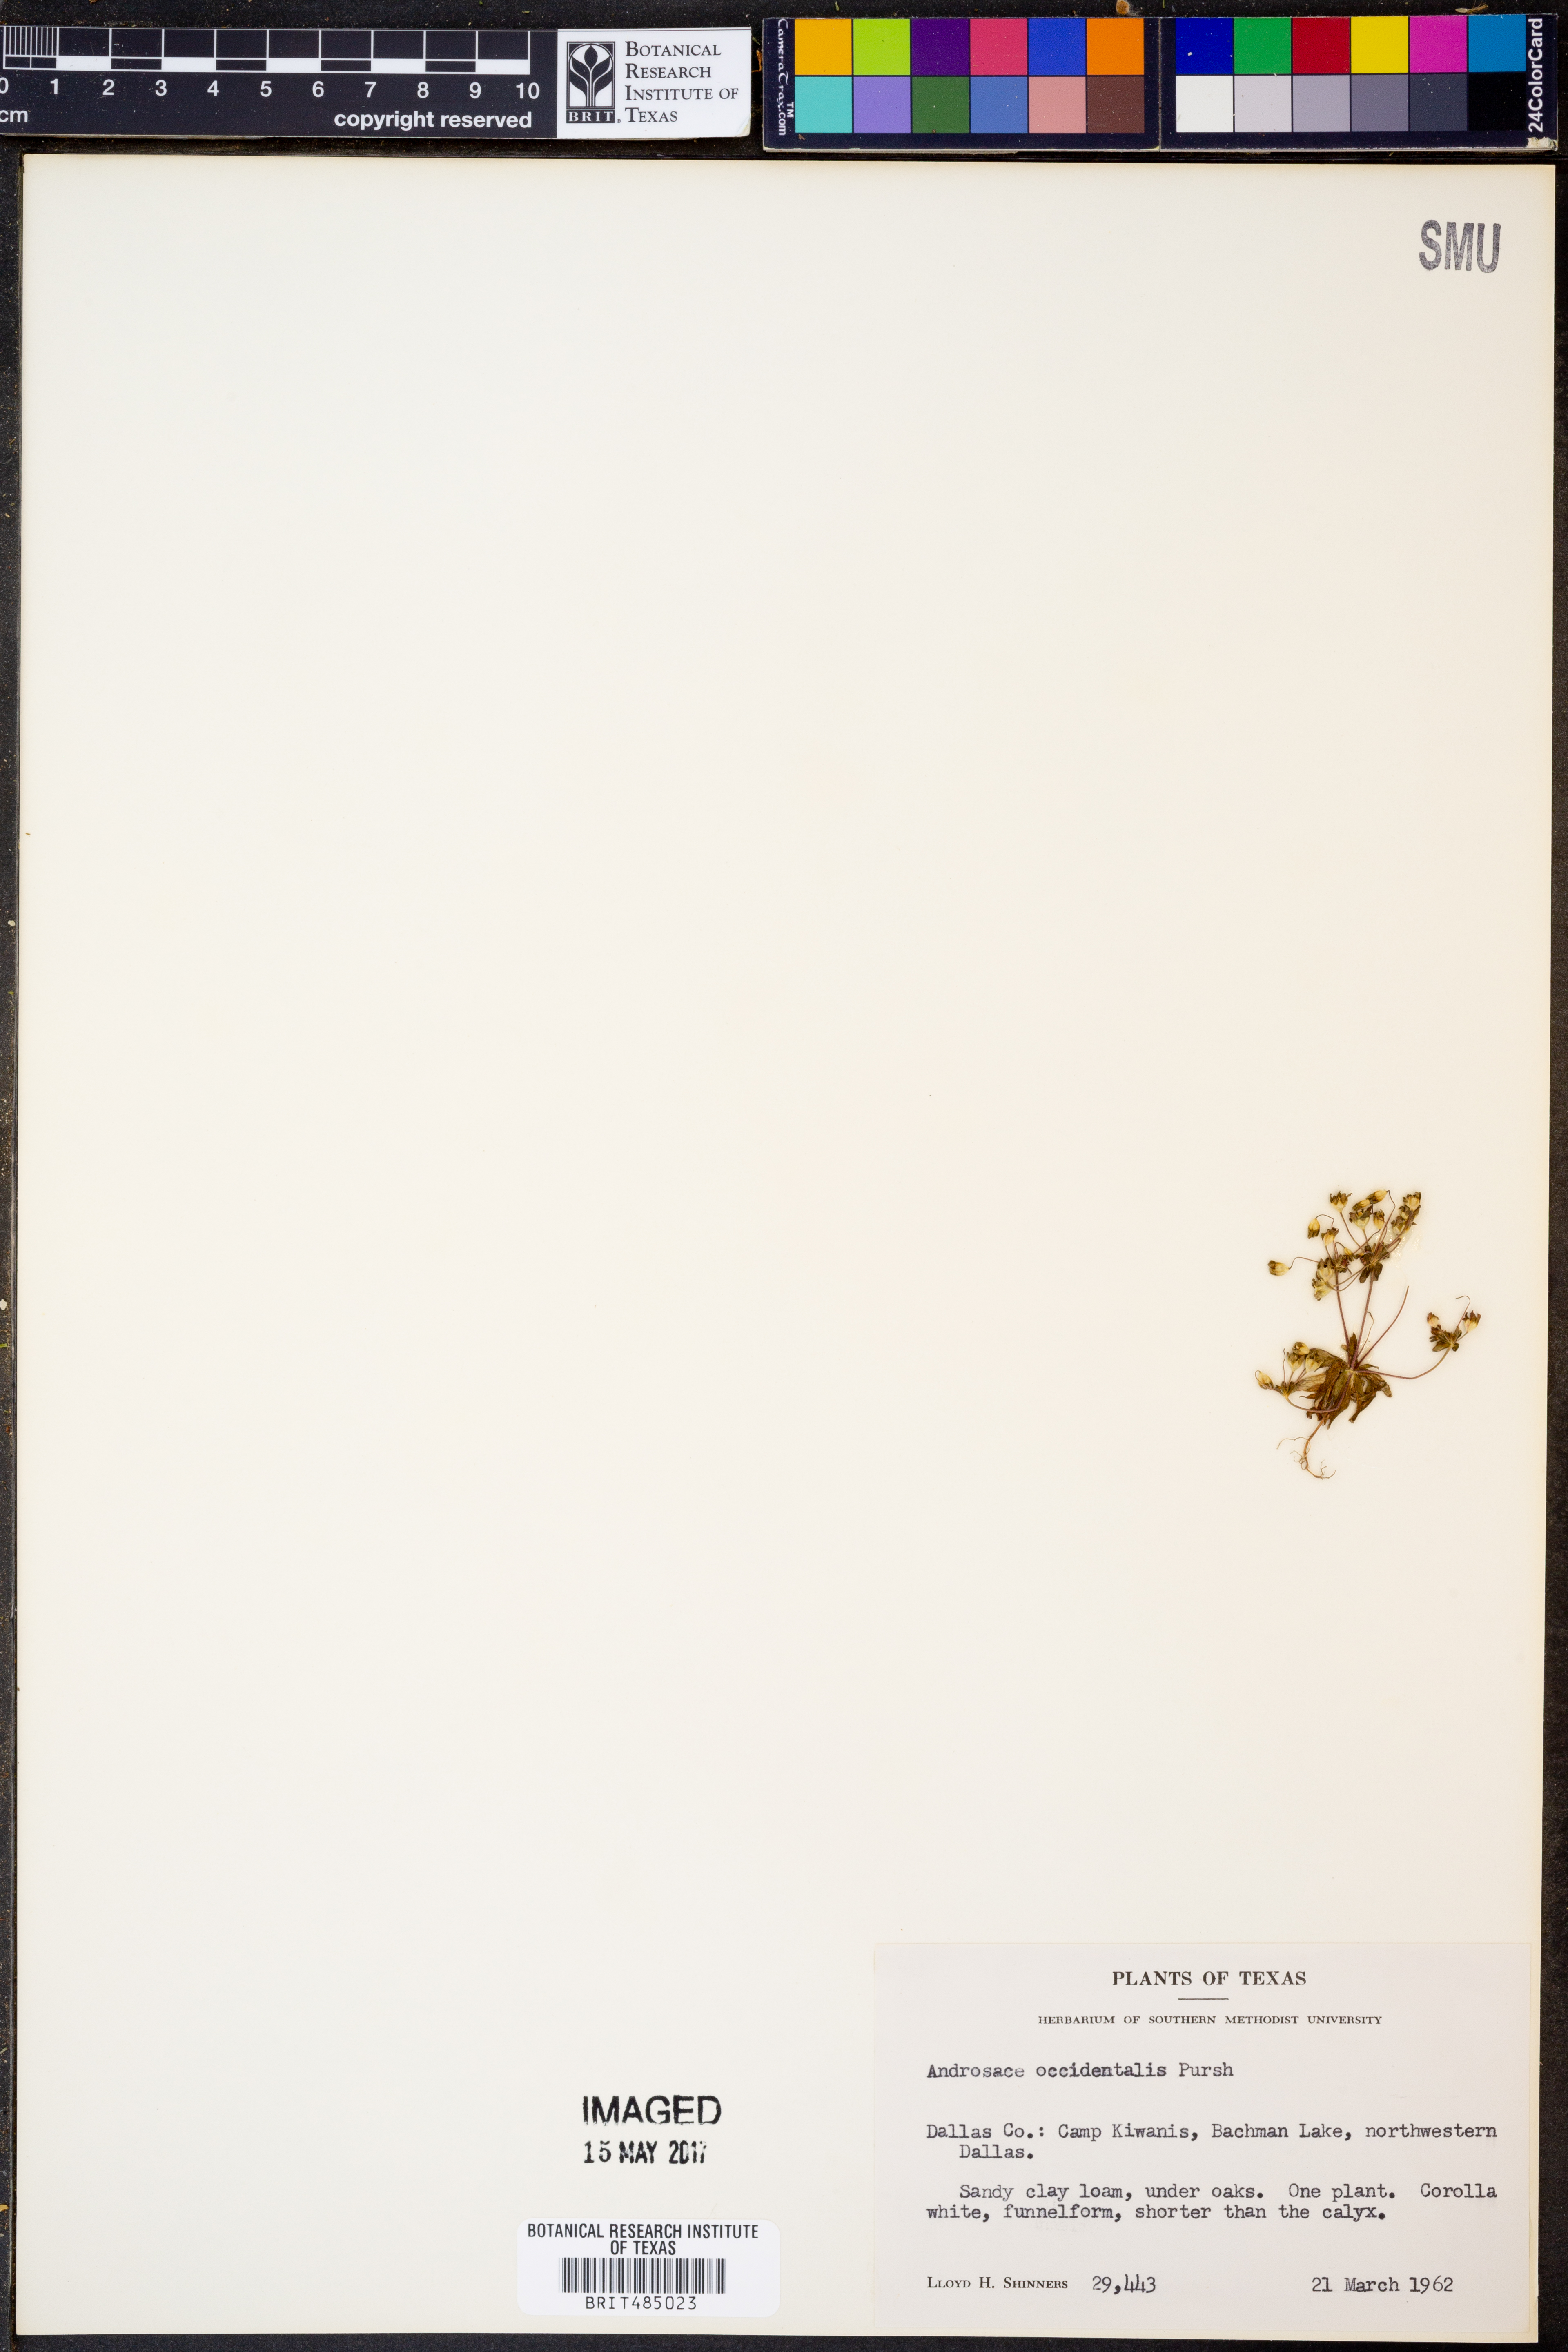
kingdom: Plantae
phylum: Tracheophyta
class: Magnoliopsida
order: Ericales
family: Primulaceae
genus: Androsace
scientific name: Androsace occidentalis
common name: West rock-jasmine
